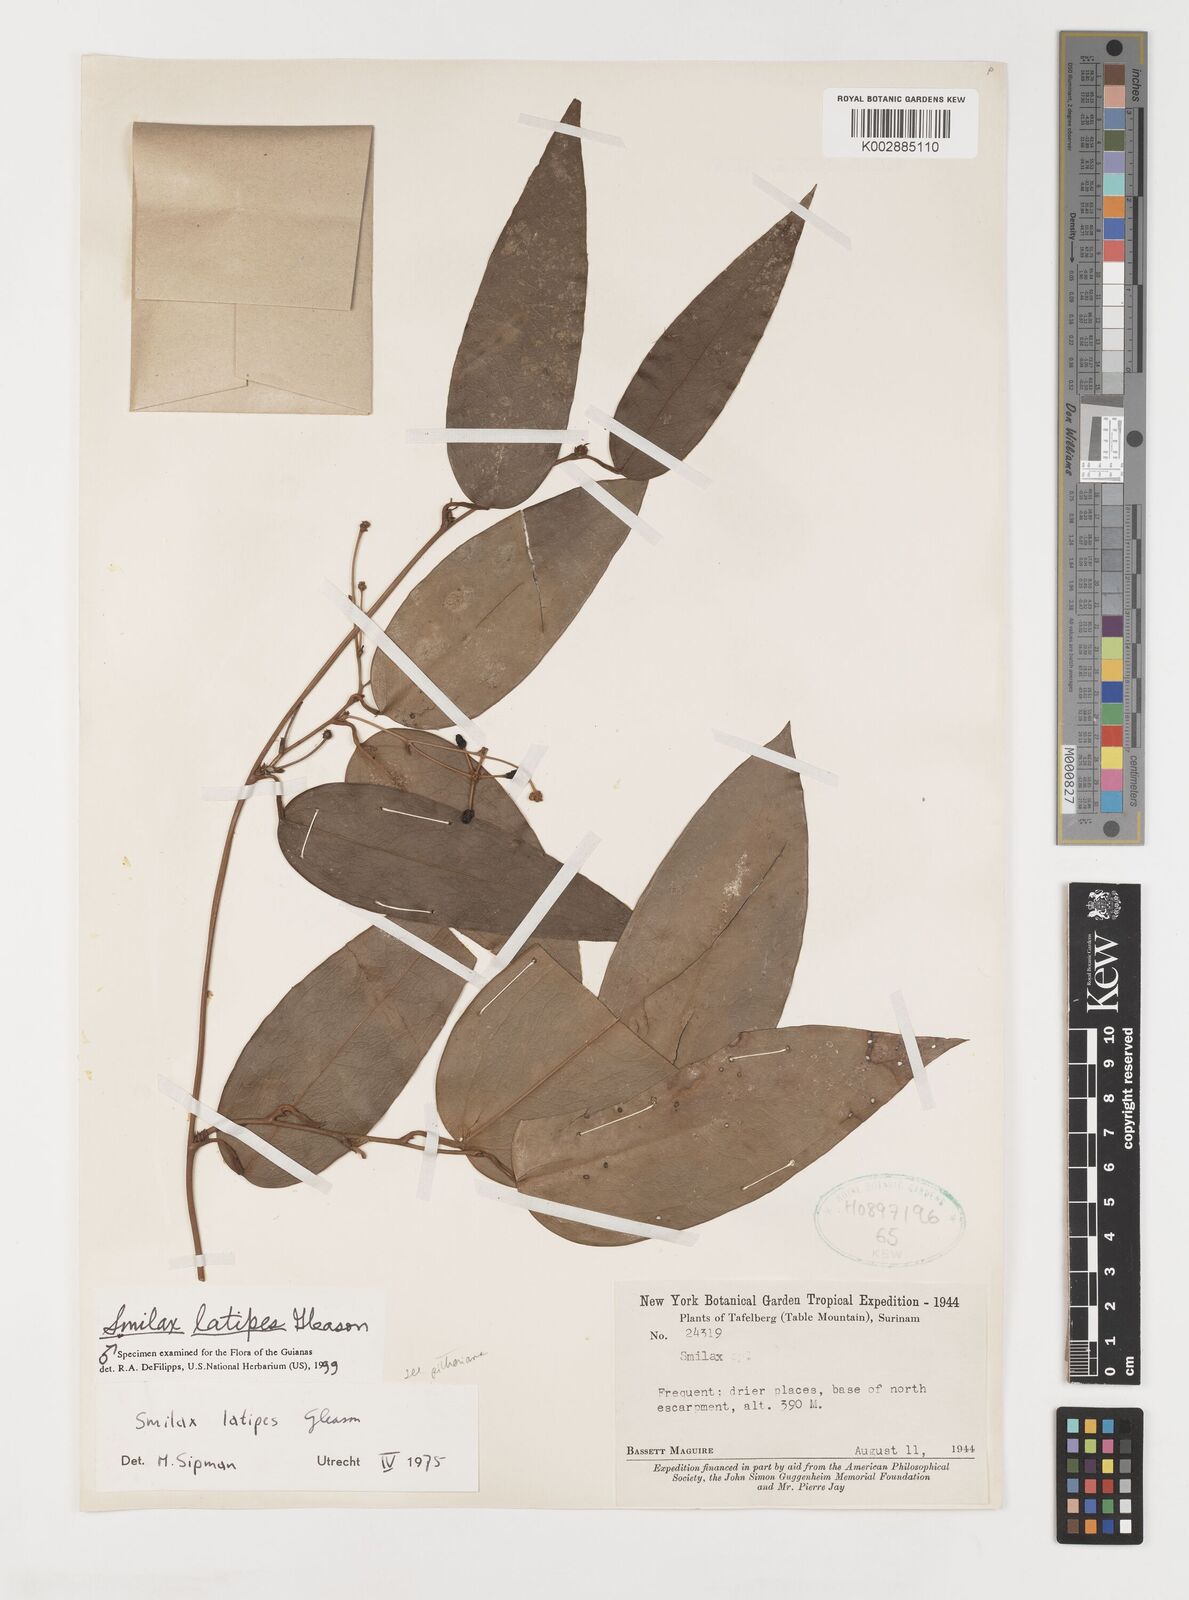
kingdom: Plantae
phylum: Tracheophyta
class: Liliopsida
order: Liliales
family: Smilacaceae
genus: Smilax
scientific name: Smilax schomburgkiana
